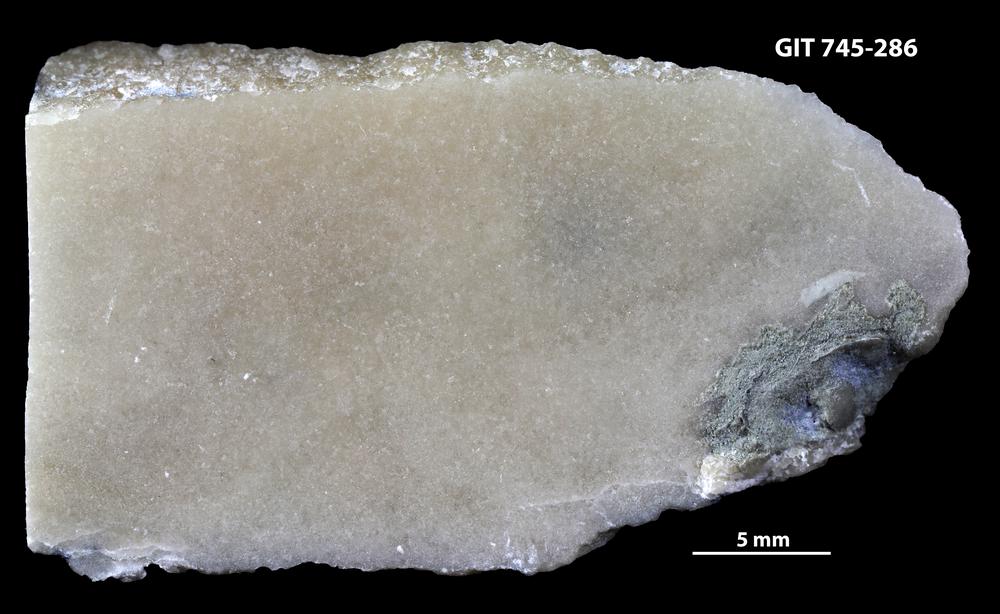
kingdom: Animalia
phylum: Porifera
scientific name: Porifera
